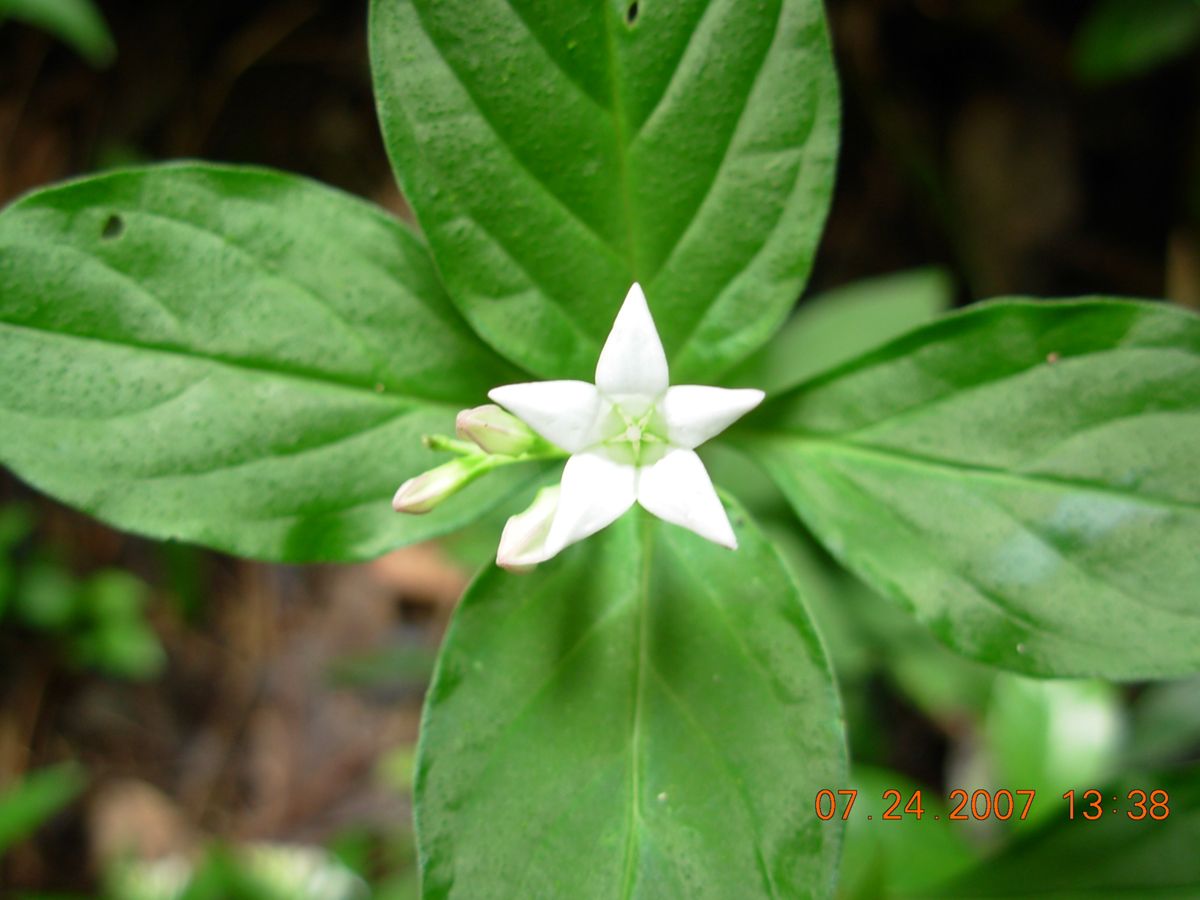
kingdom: Plantae
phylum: Tracheophyta
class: Magnoliopsida
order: Gentianales
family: Loganiaceae
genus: Spigelia
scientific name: Spigelia humboldtiana
